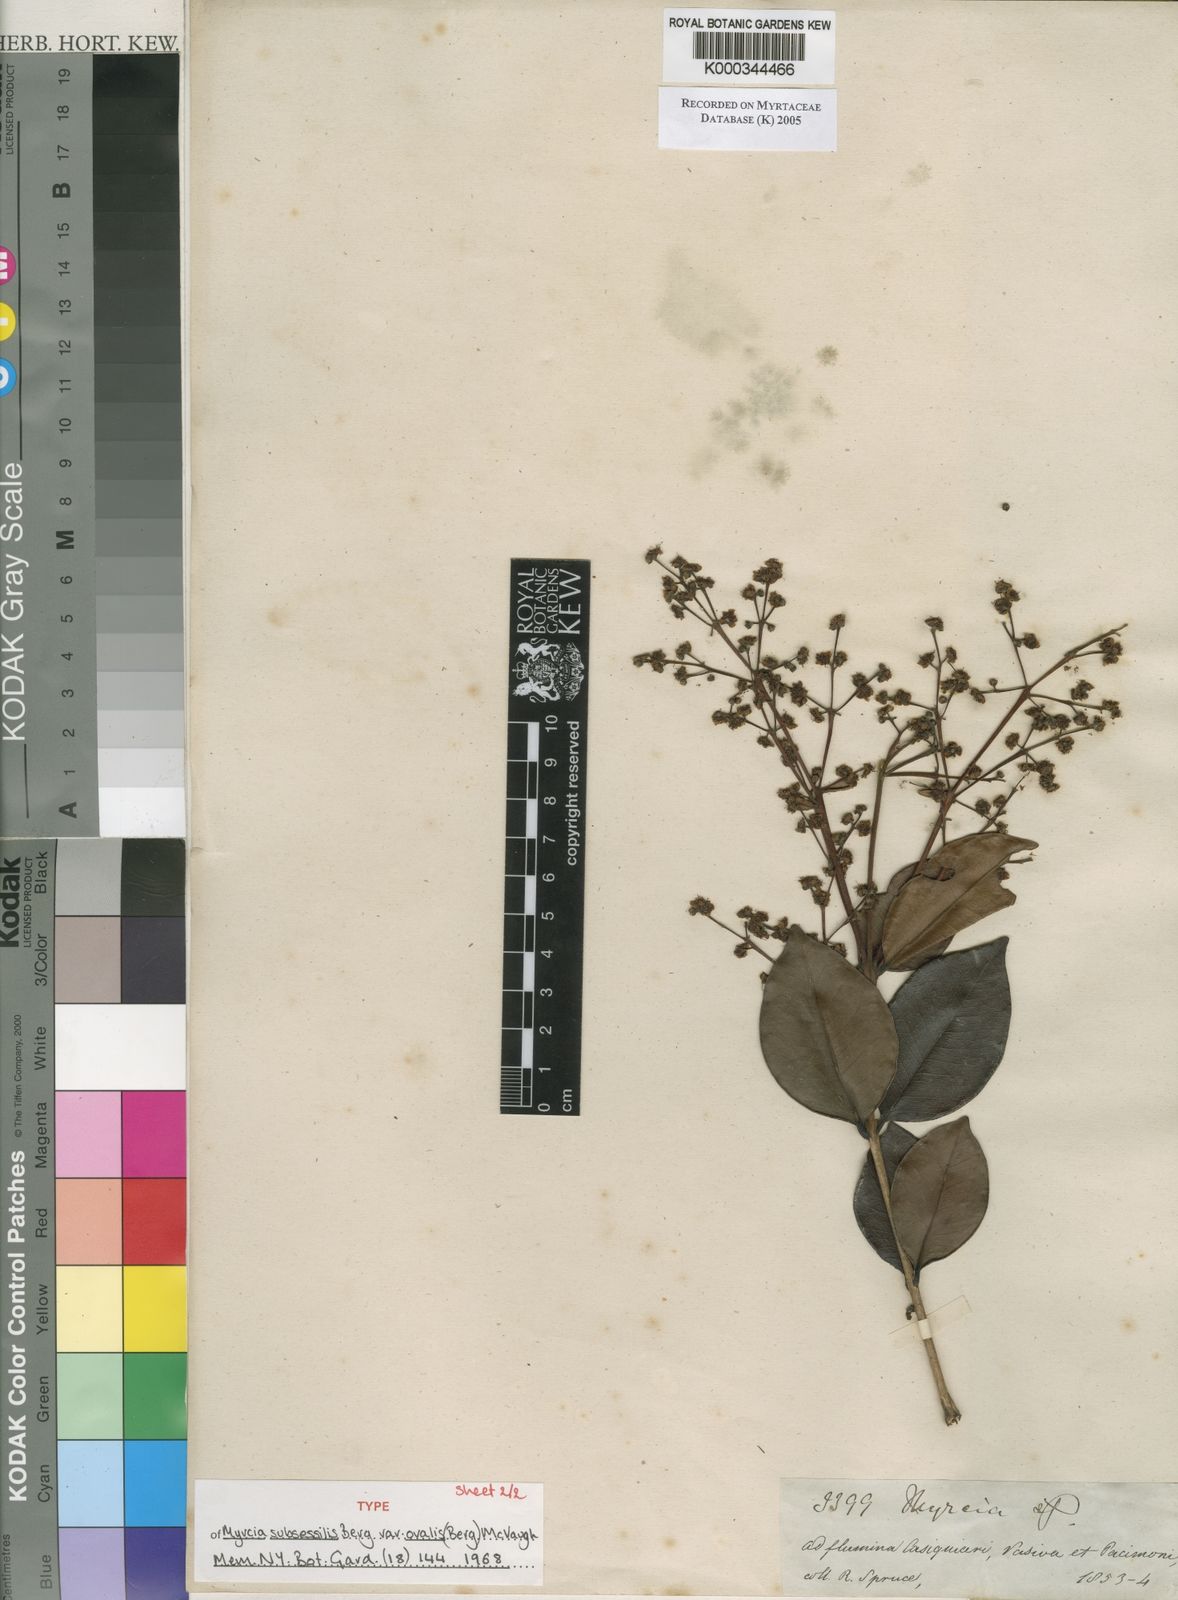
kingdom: Plantae
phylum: Tracheophyta
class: Magnoliopsida
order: Myrtales
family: Myrtaceae
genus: Myrcia
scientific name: Myrcia subsessilis
